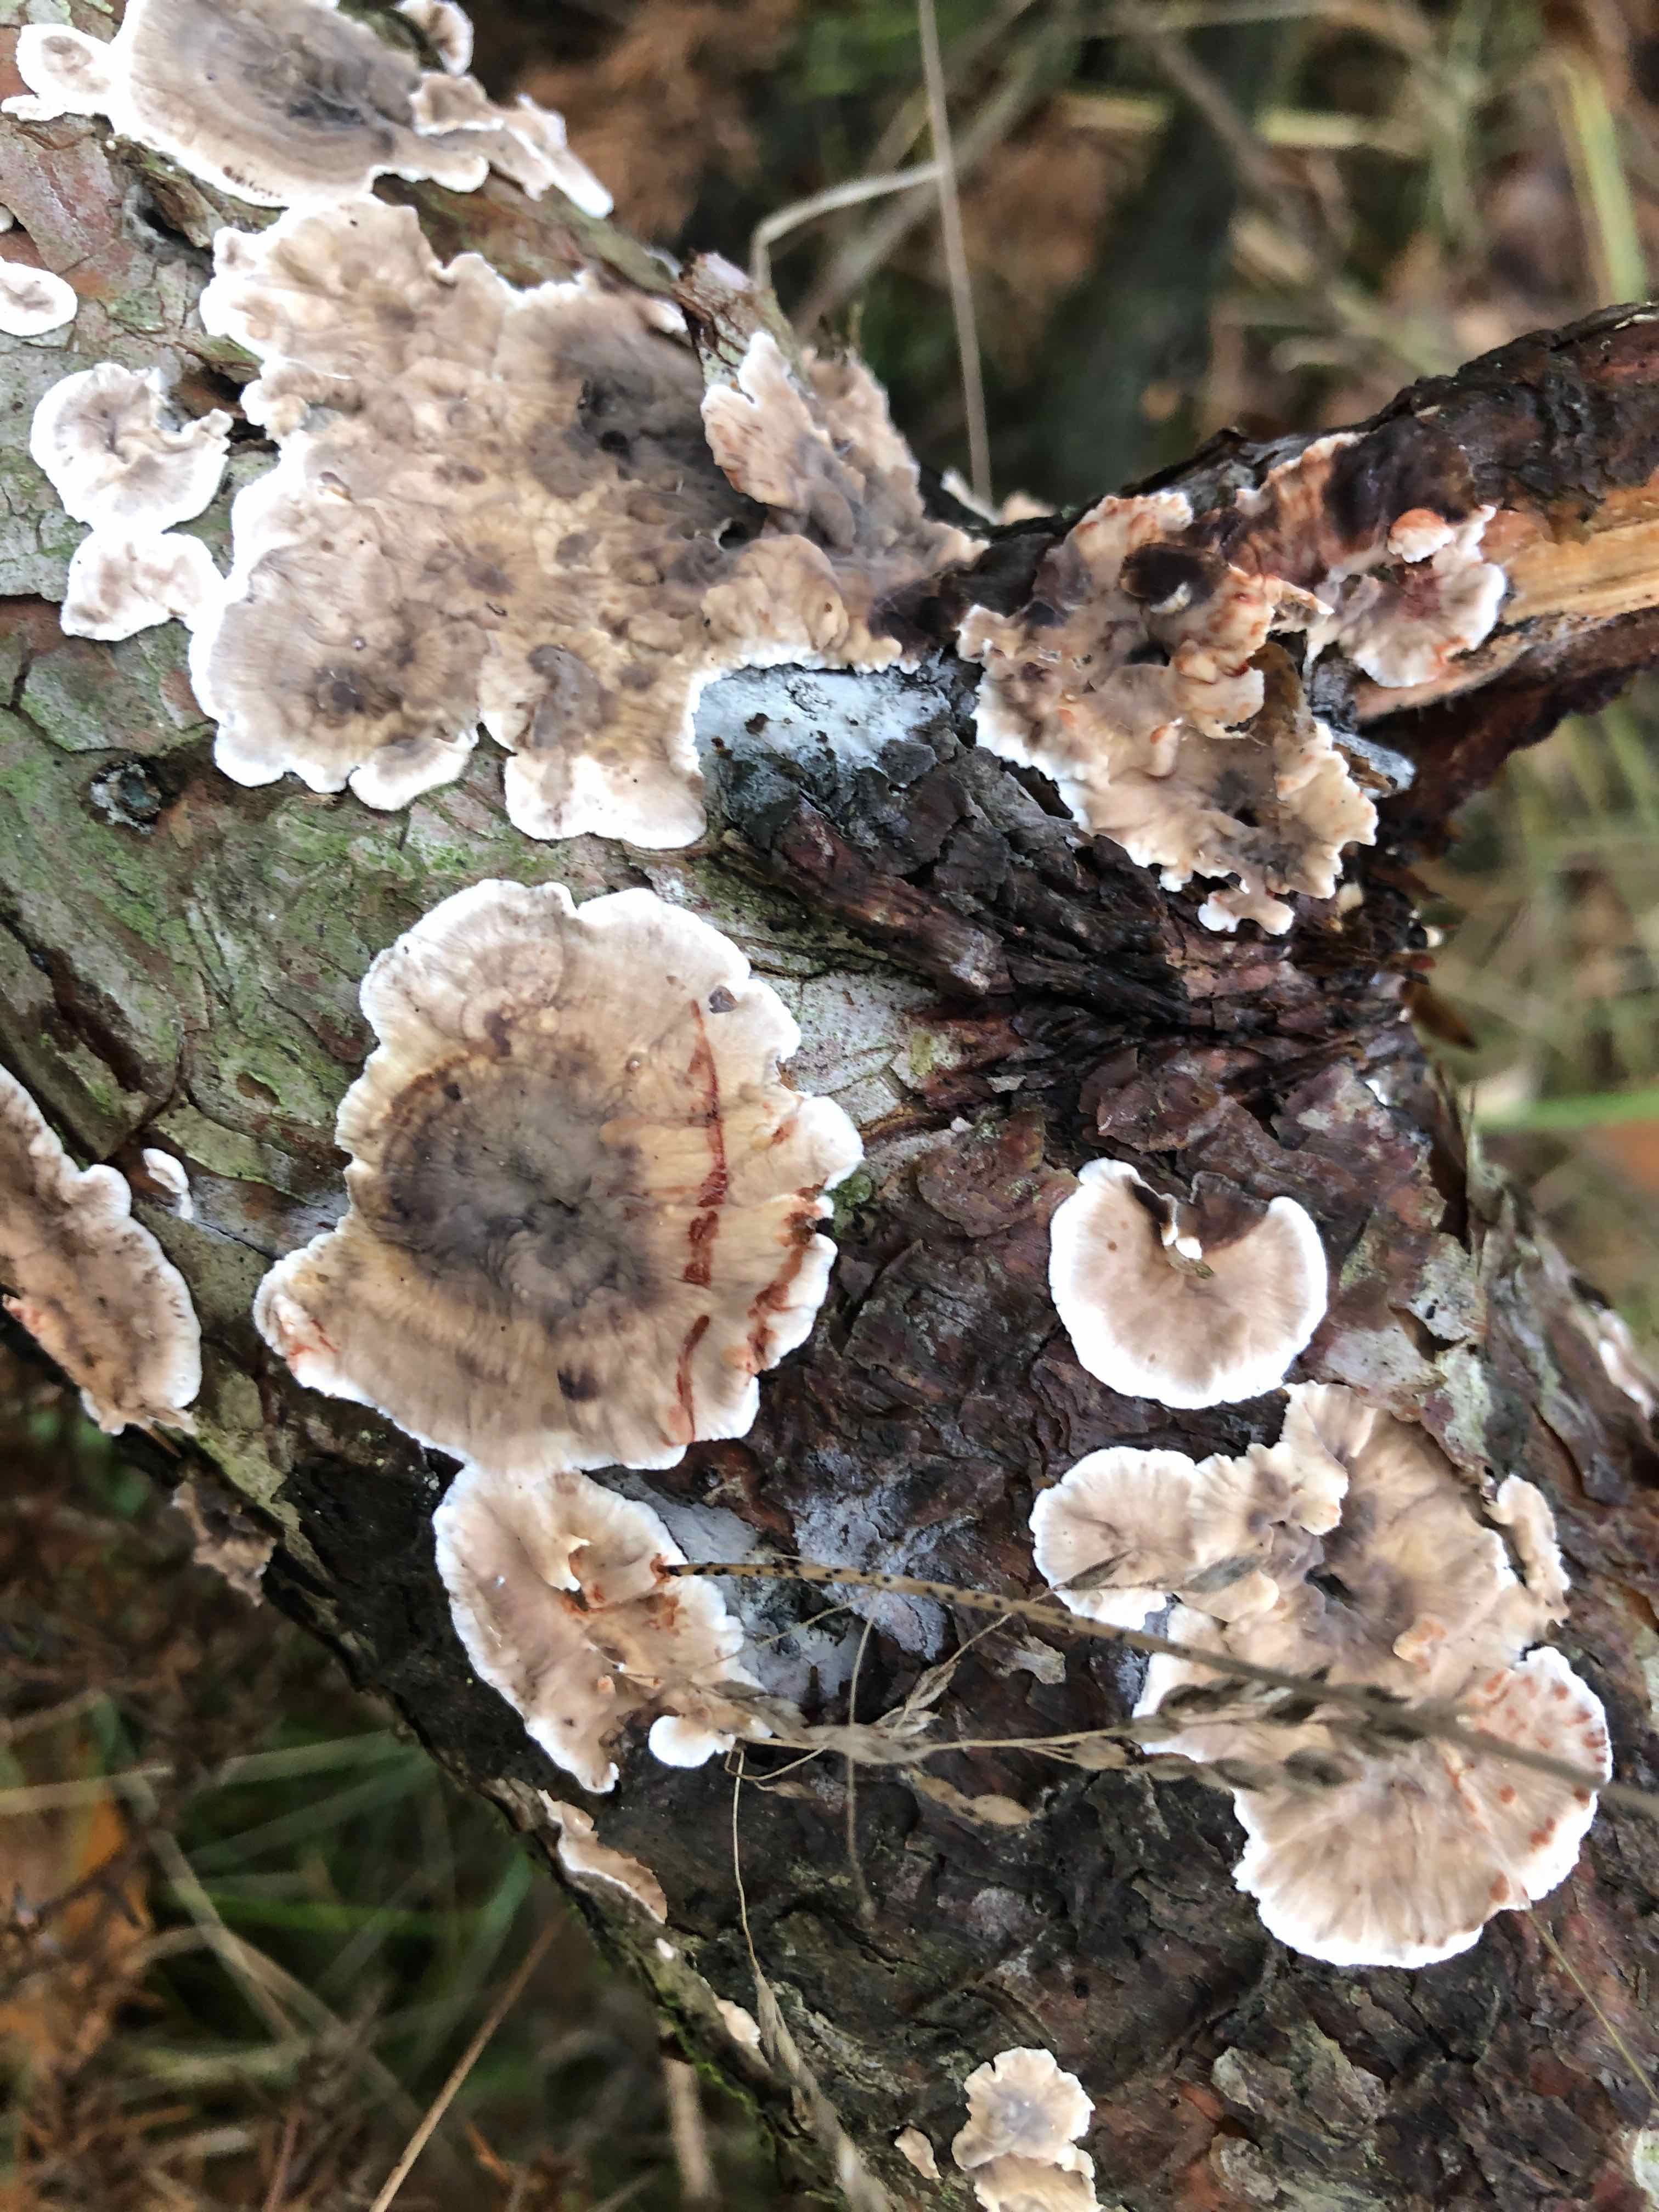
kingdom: Fungi
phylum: Basidiomycota
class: Agaricomycetes
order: Russulales
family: Stereaceae
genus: Stereum
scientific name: Stereum sanguinolentum
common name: blødende lædersvamp
